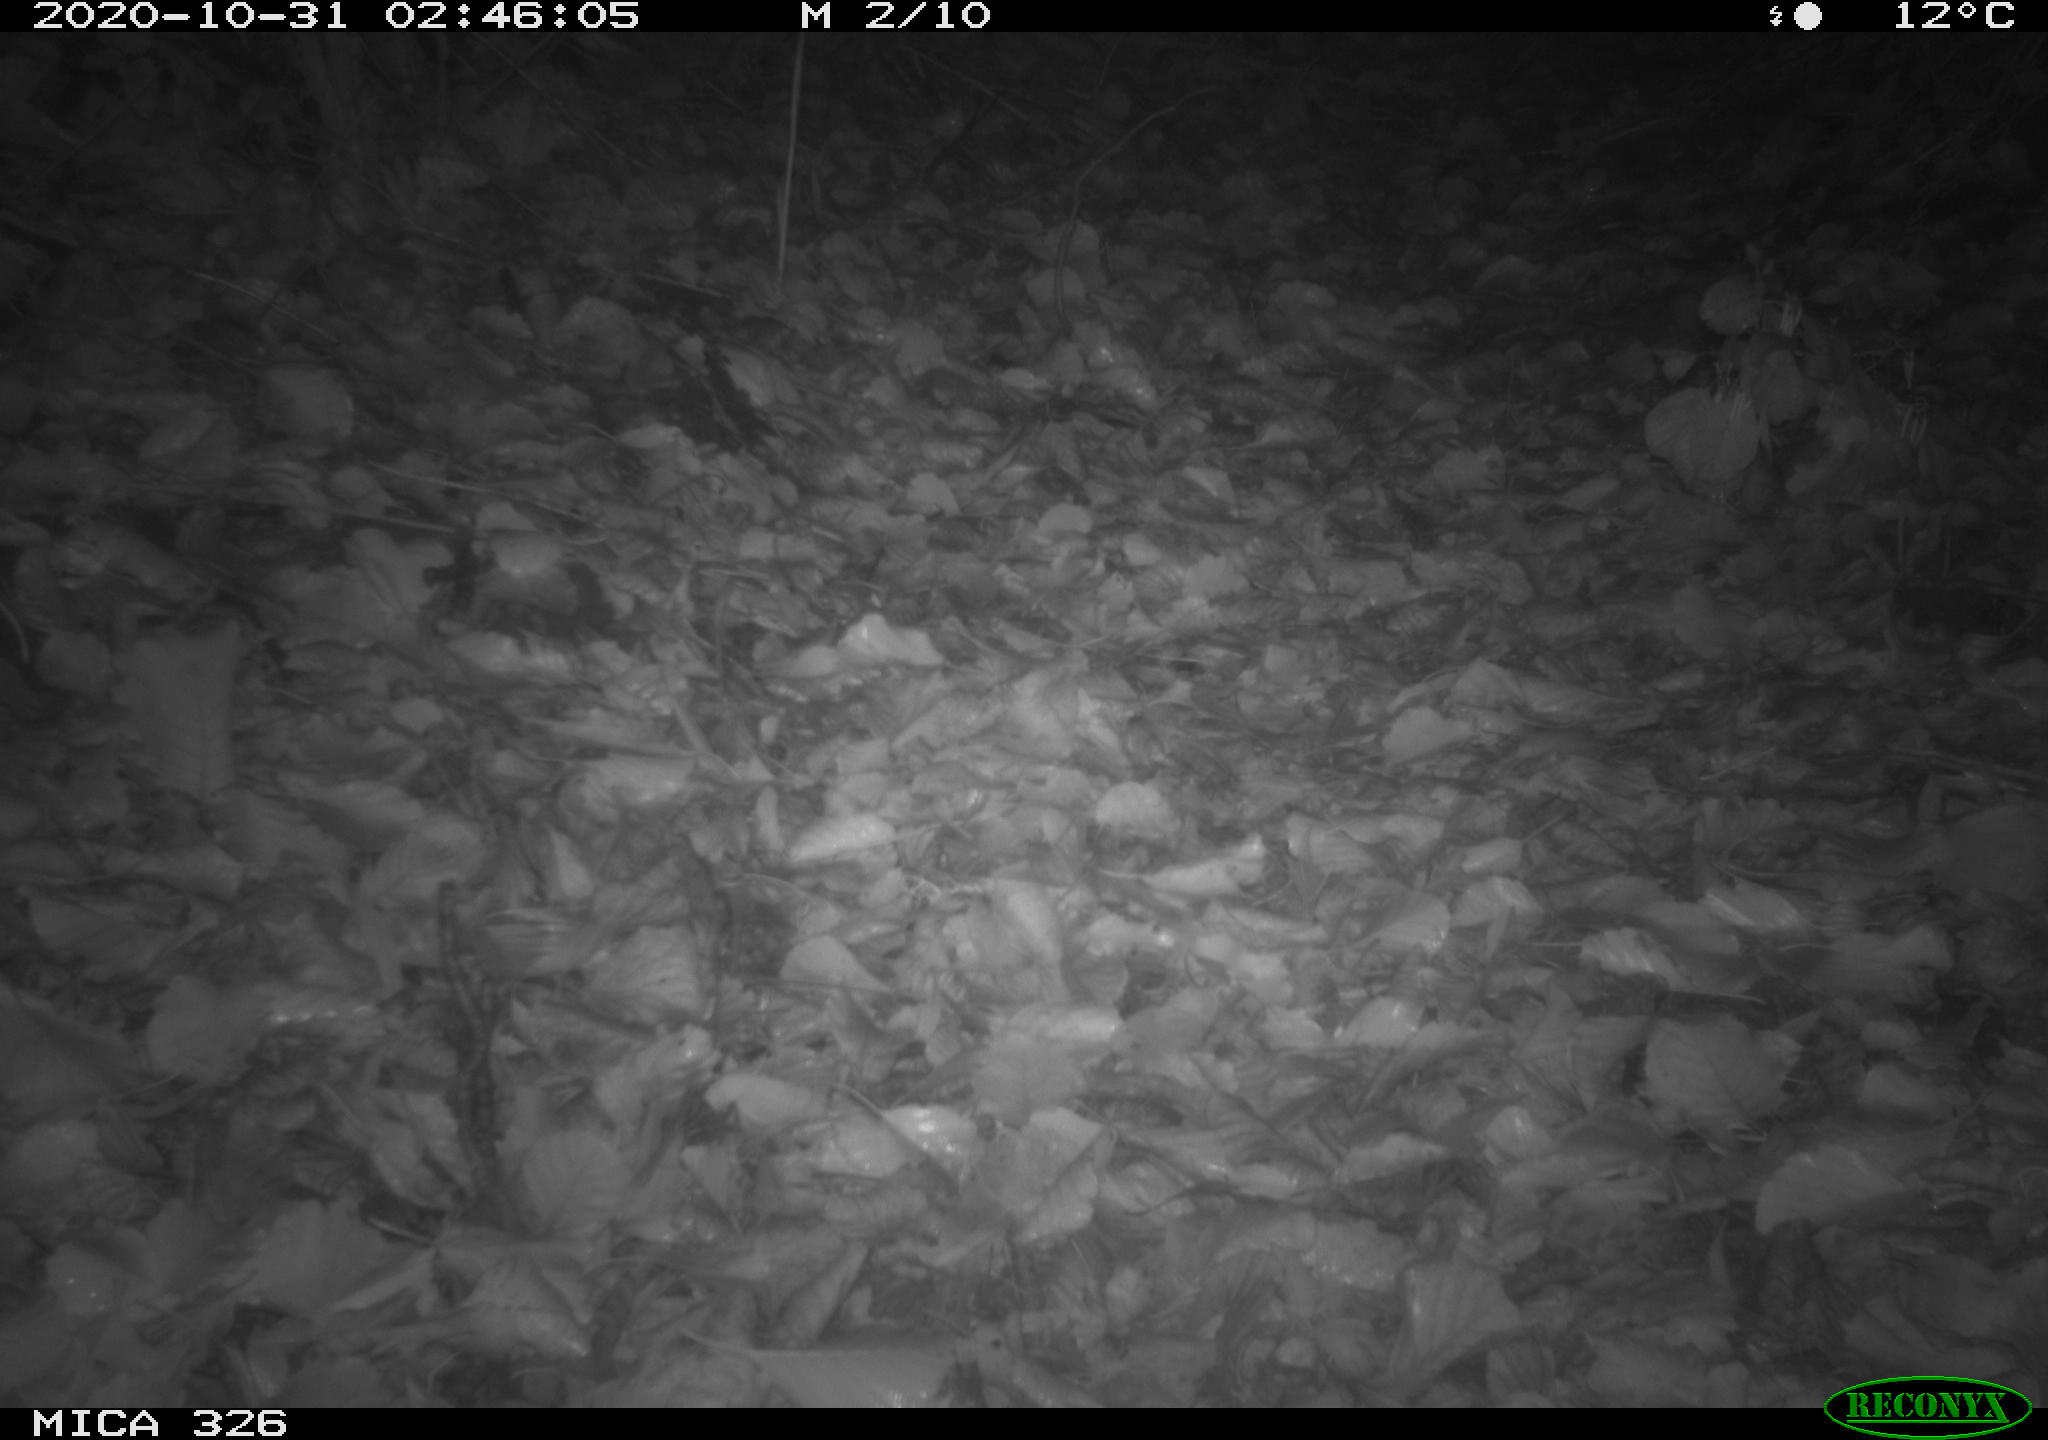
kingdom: Animalia
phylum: Chordata
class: Mammalia
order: Carnivora
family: Mustelidae
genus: Lutra
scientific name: Lutra lutra
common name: European otter
